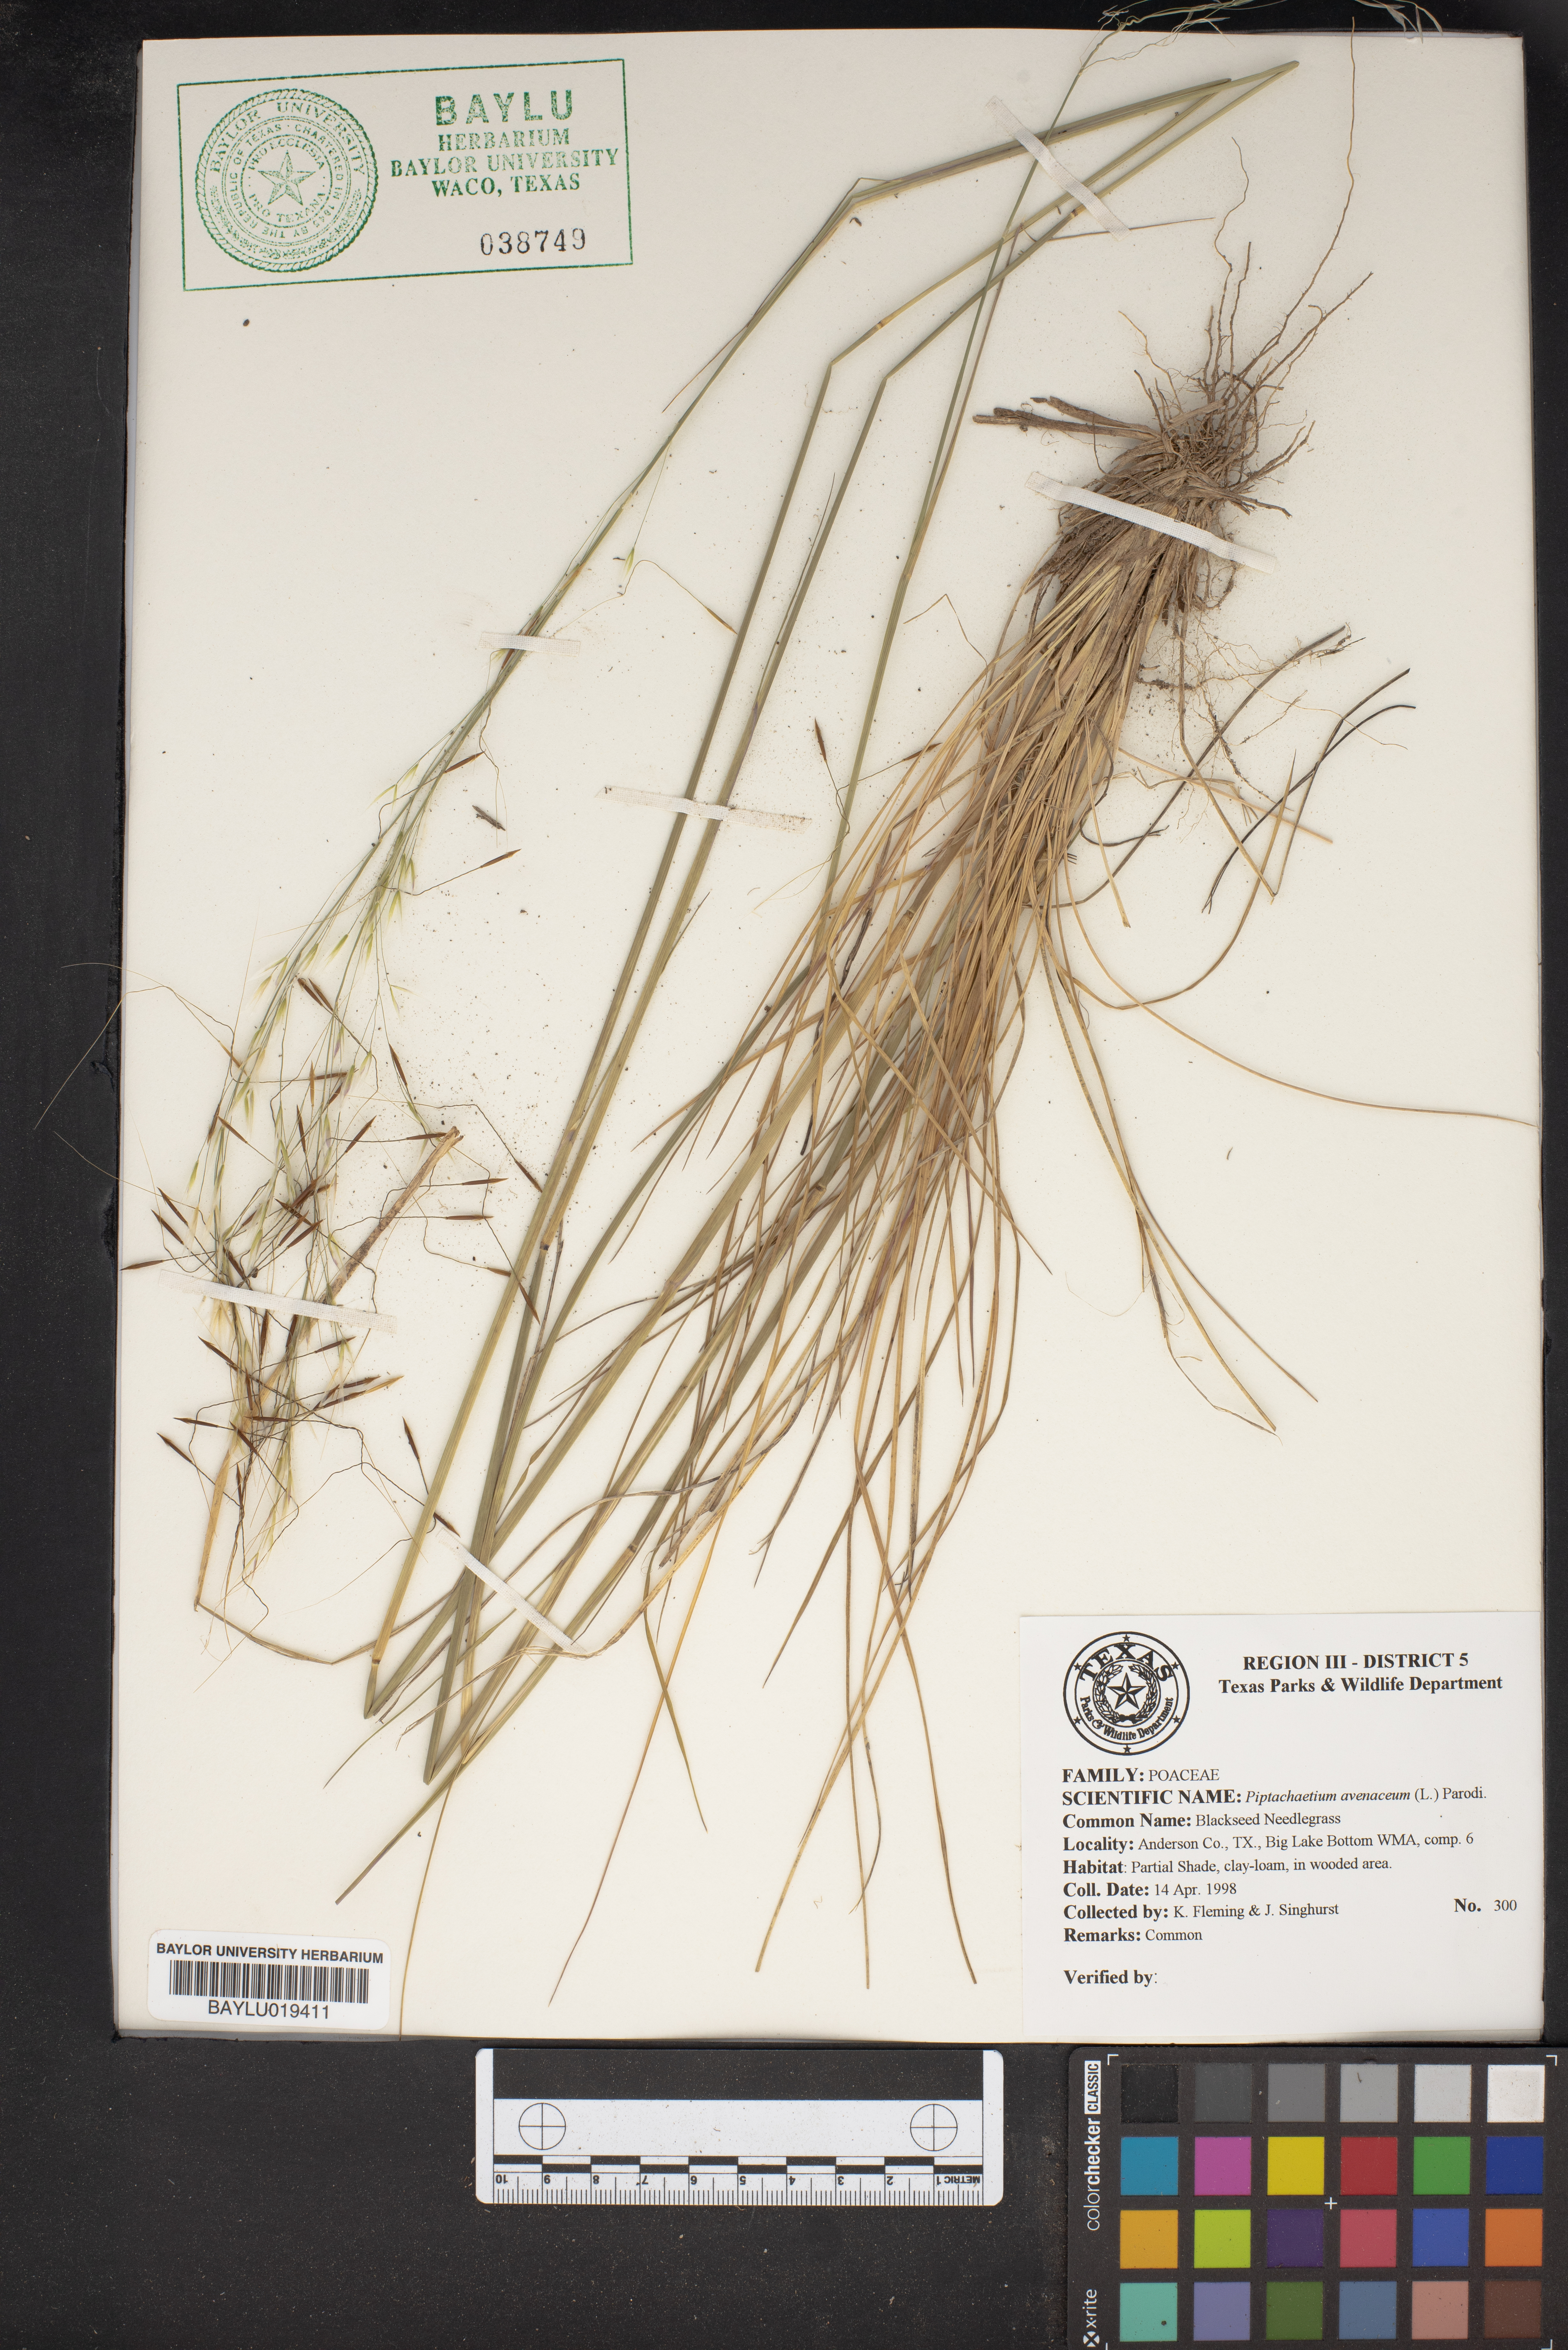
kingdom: Plantae
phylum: Tracheophyta
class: Liliopsida
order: Poales
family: Poaceae
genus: Piptochaetium
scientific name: Piptochaetium avenaceum
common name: Black bunchgrass
